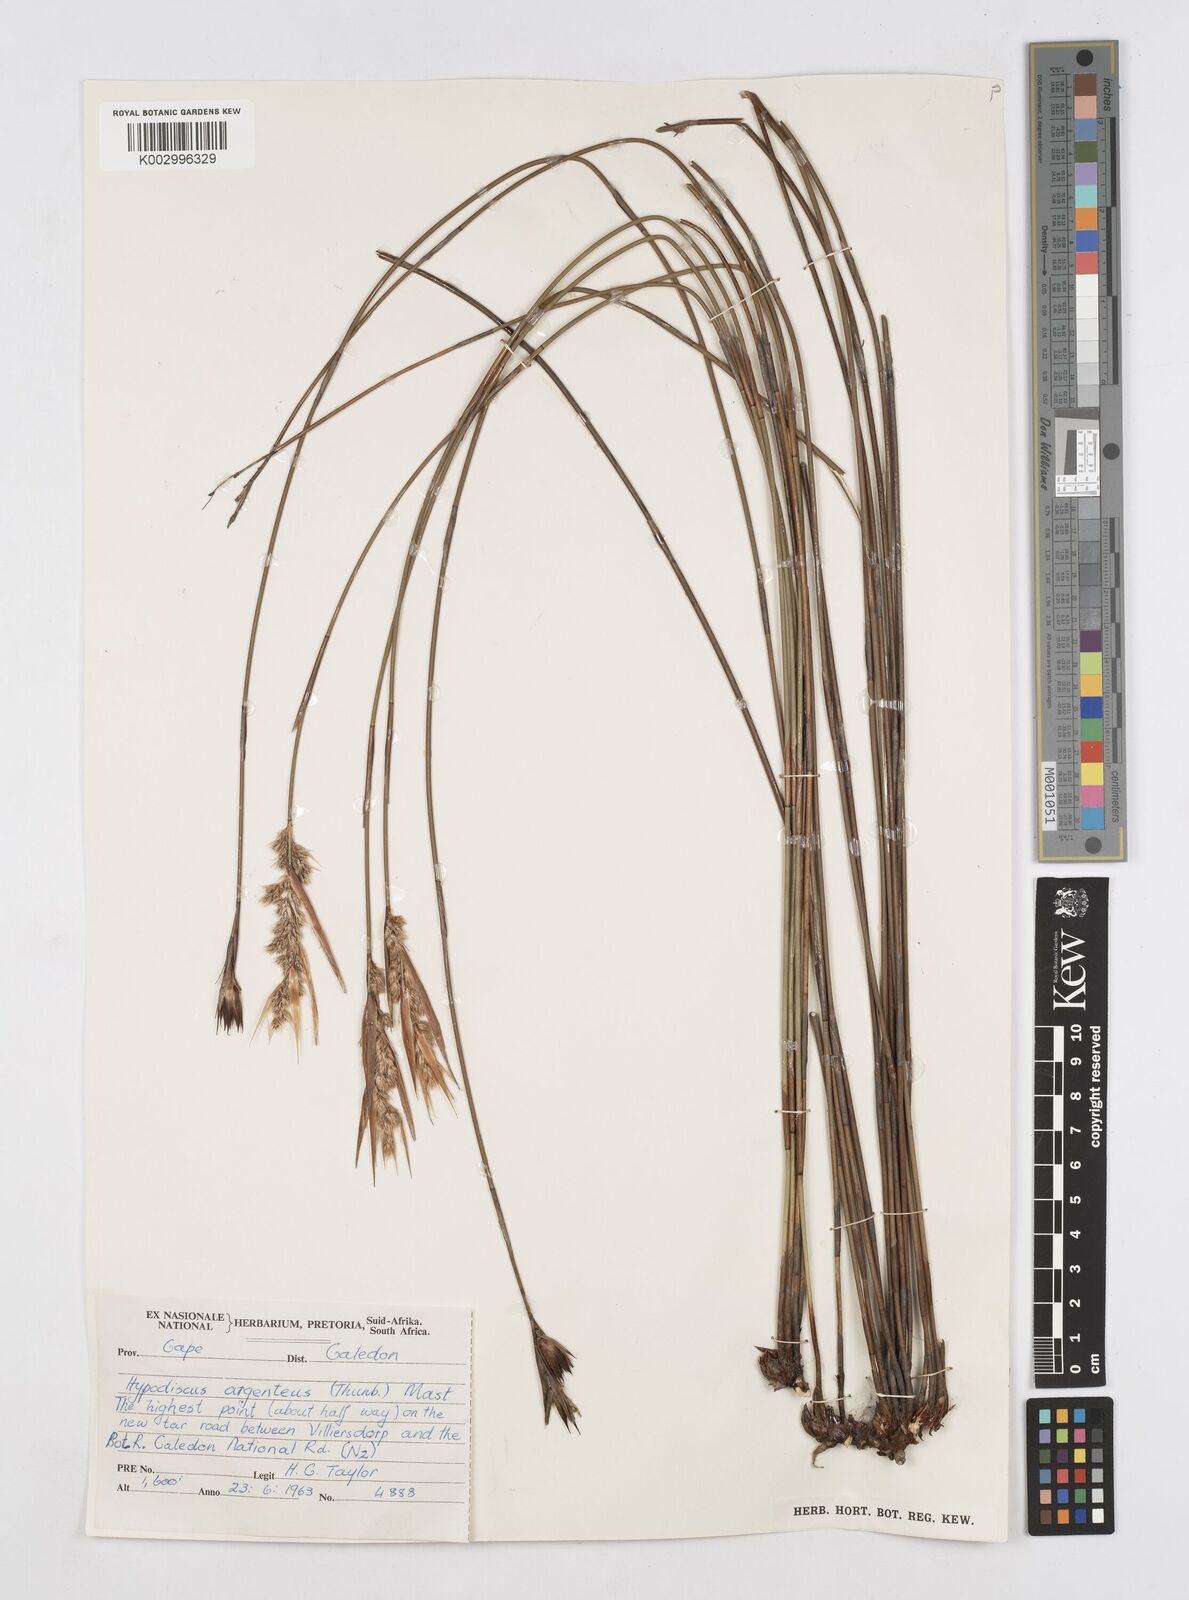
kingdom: Plantae
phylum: Tracheophyta
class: Liliopsida
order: Poales
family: Restionaceae
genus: Hypodiscus
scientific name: Hypodiscus argenteus
